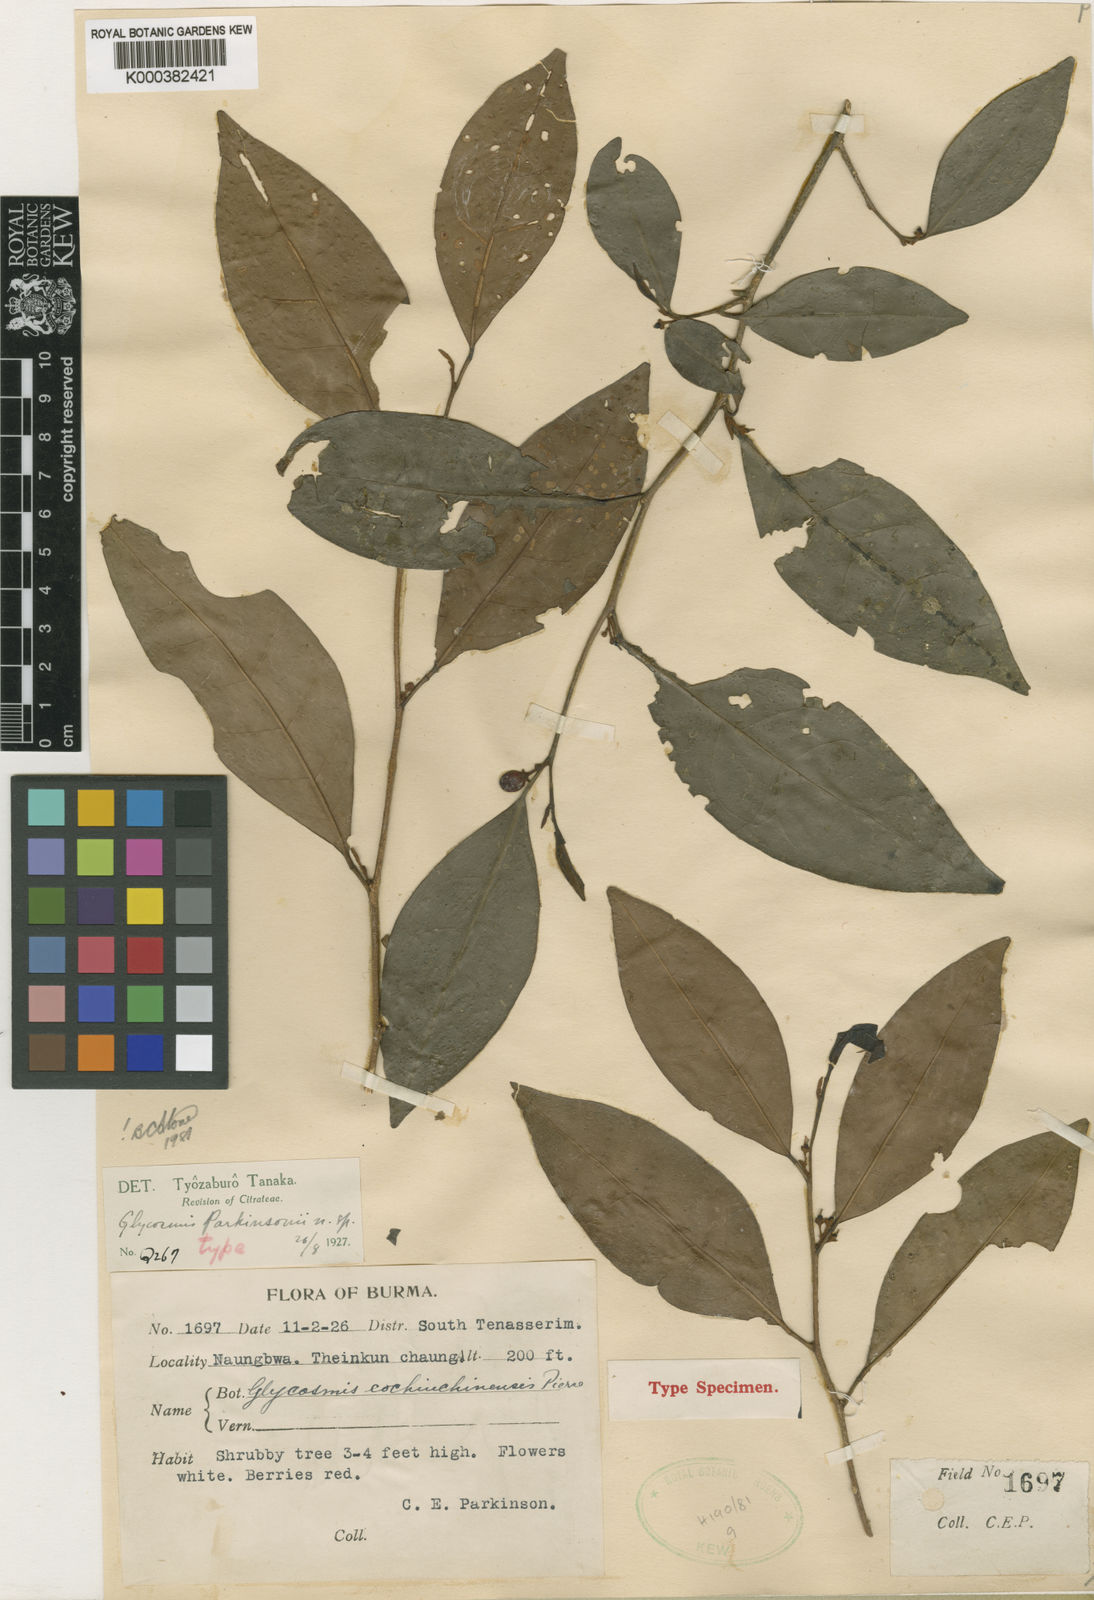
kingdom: Plantae
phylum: Tracheophyta
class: Magnoliopsida
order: Sapindales
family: Rutaceae
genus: Glycosmis
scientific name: Glycosmis parkinsonii
